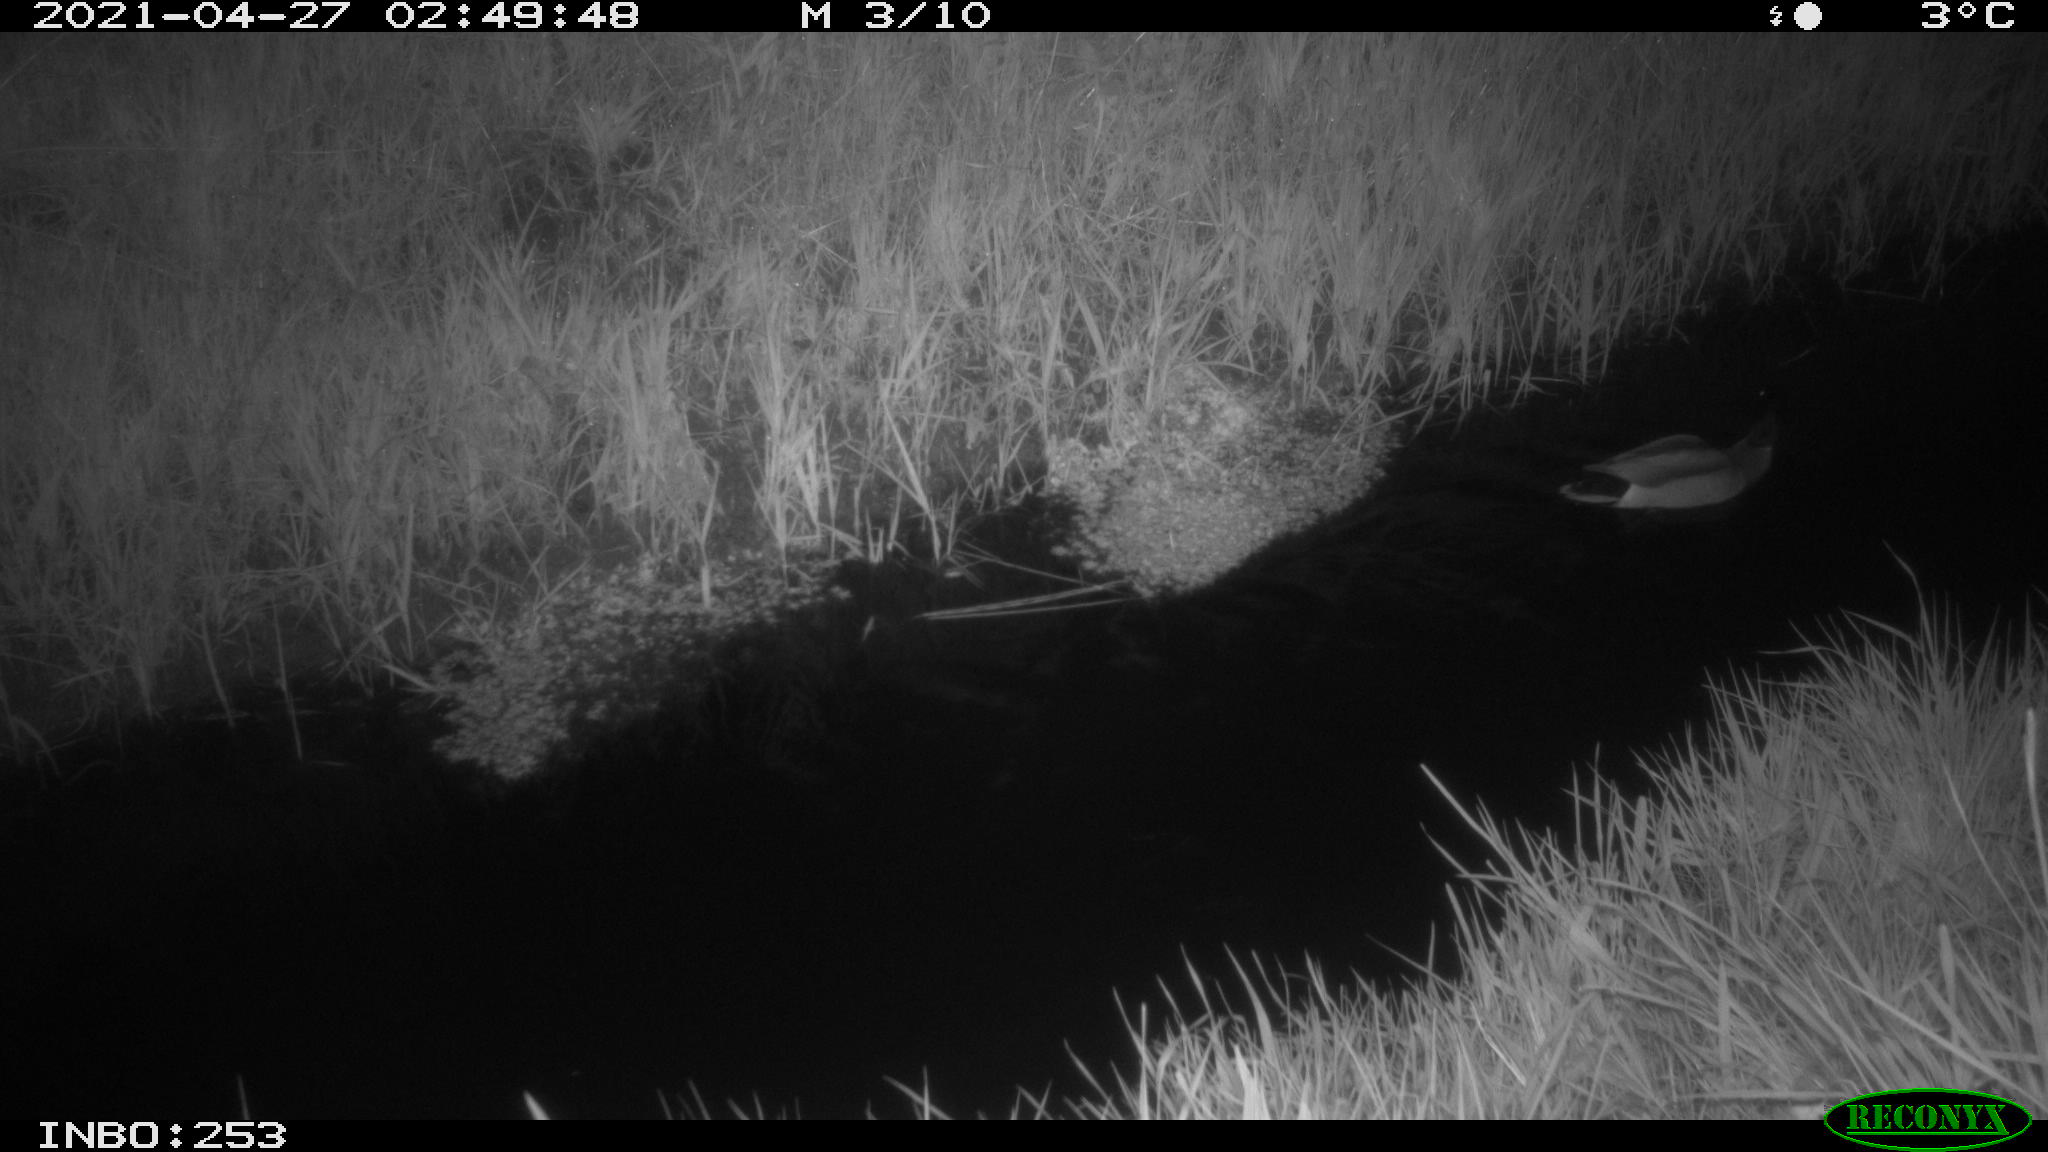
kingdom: Animalia
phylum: Chordata
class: Aves
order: Anseriformes
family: Anatidae
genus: Anas
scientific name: Anas platyrhynchos
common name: Mallard
